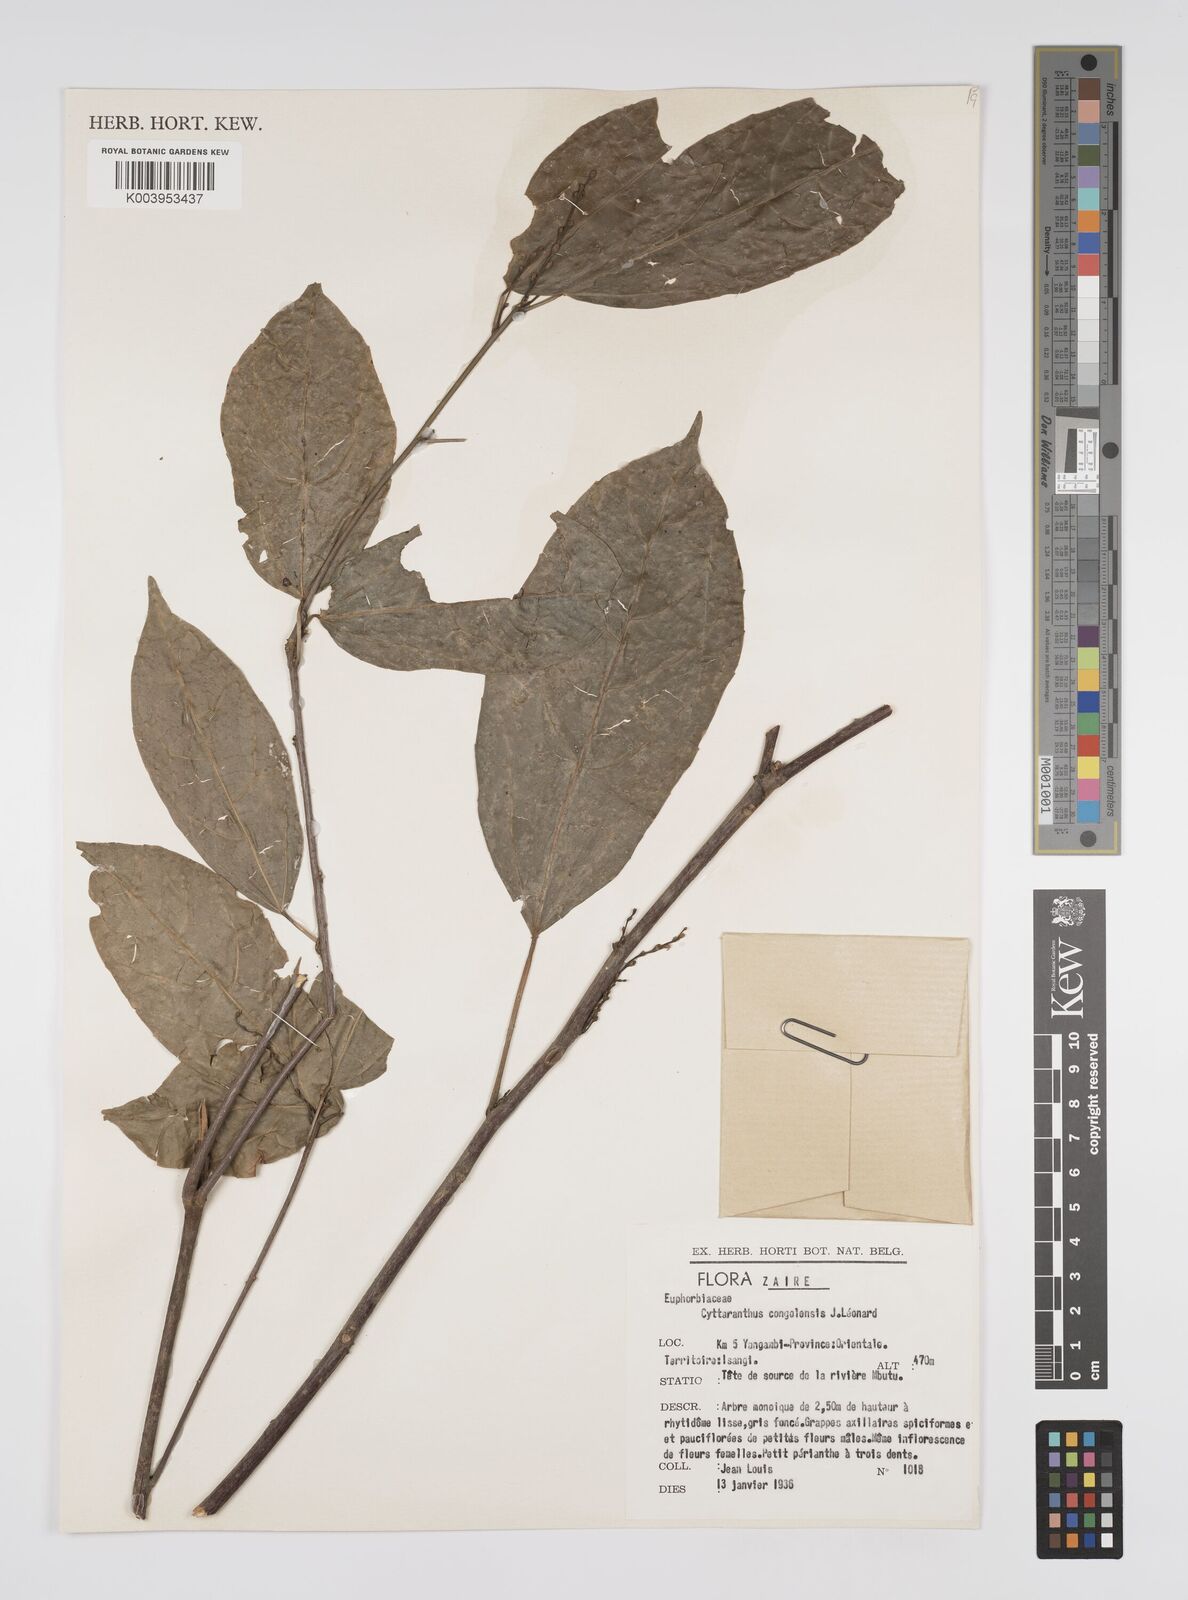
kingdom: Plantae
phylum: Tracheophyta
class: Magnoliopsida
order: Malpighiales
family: Euphorbiaceae
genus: Cyttaranthus
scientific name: Cyttaranthus congolensis
